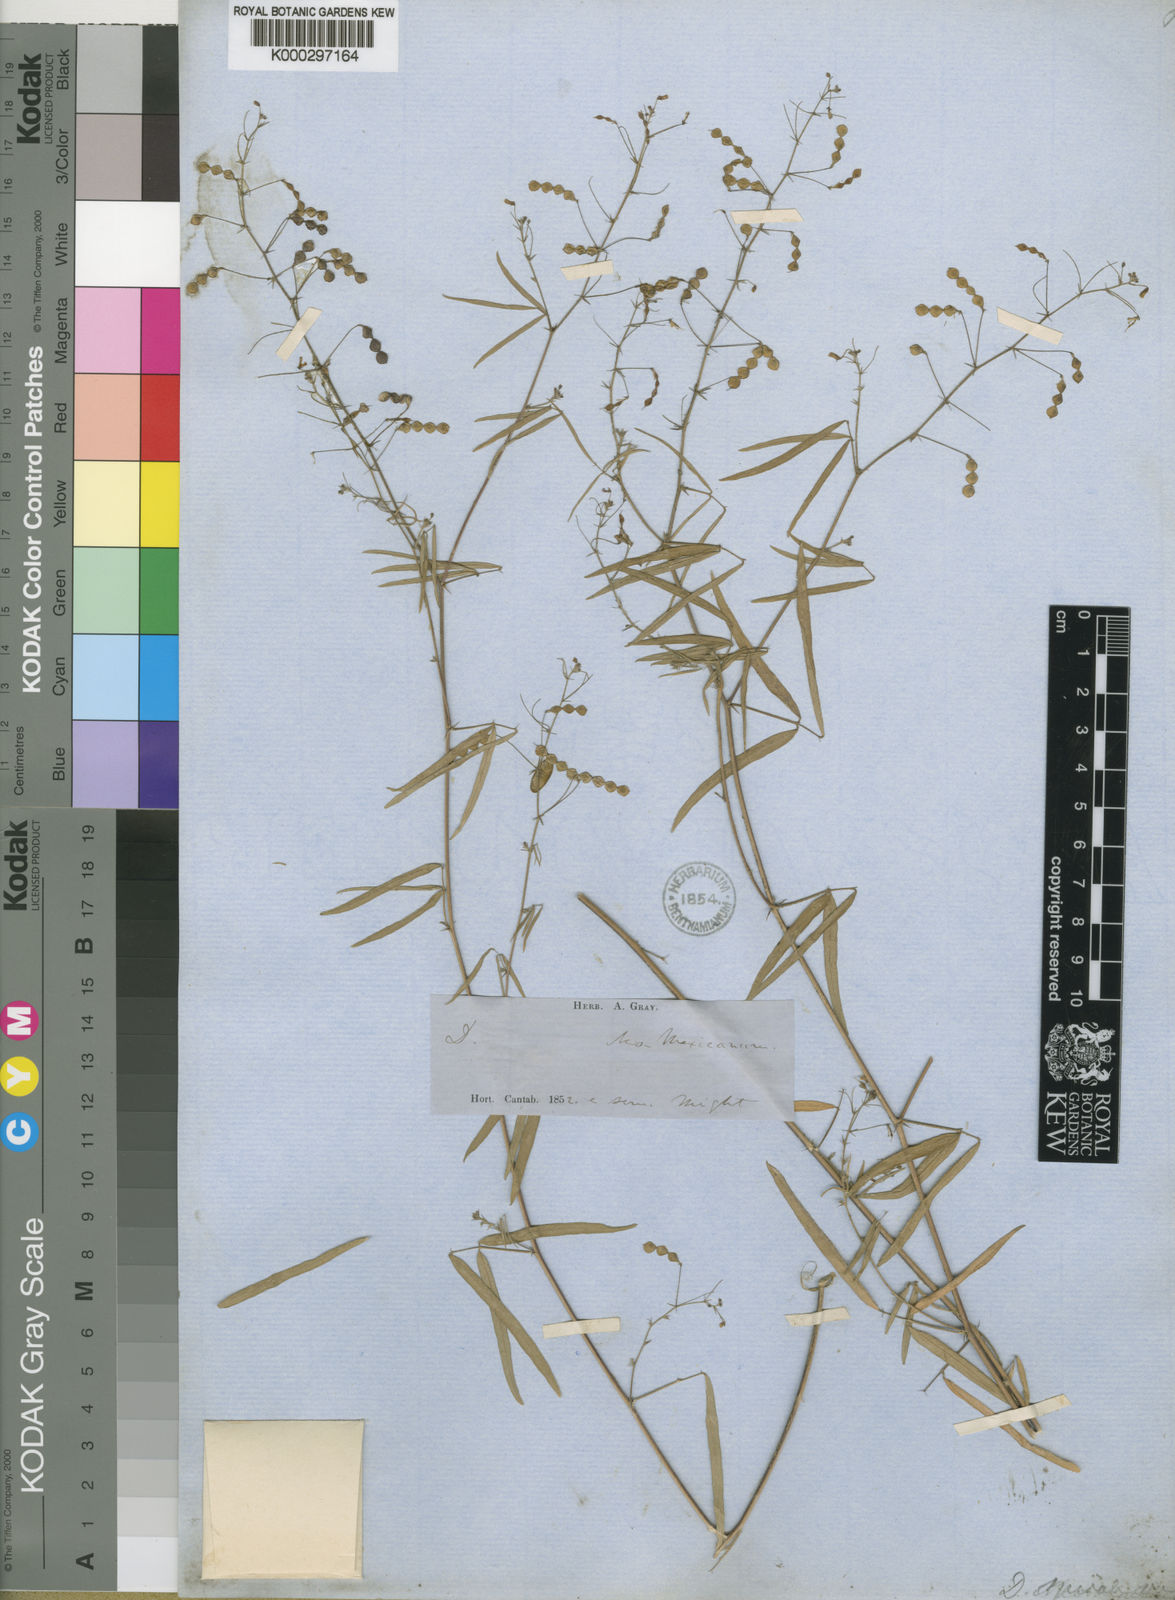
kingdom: Plantae
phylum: Tracheophyta
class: Magnoliopsida
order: Fabales
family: Fabaceae
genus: Desmodium
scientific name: Desmodium procumbens
